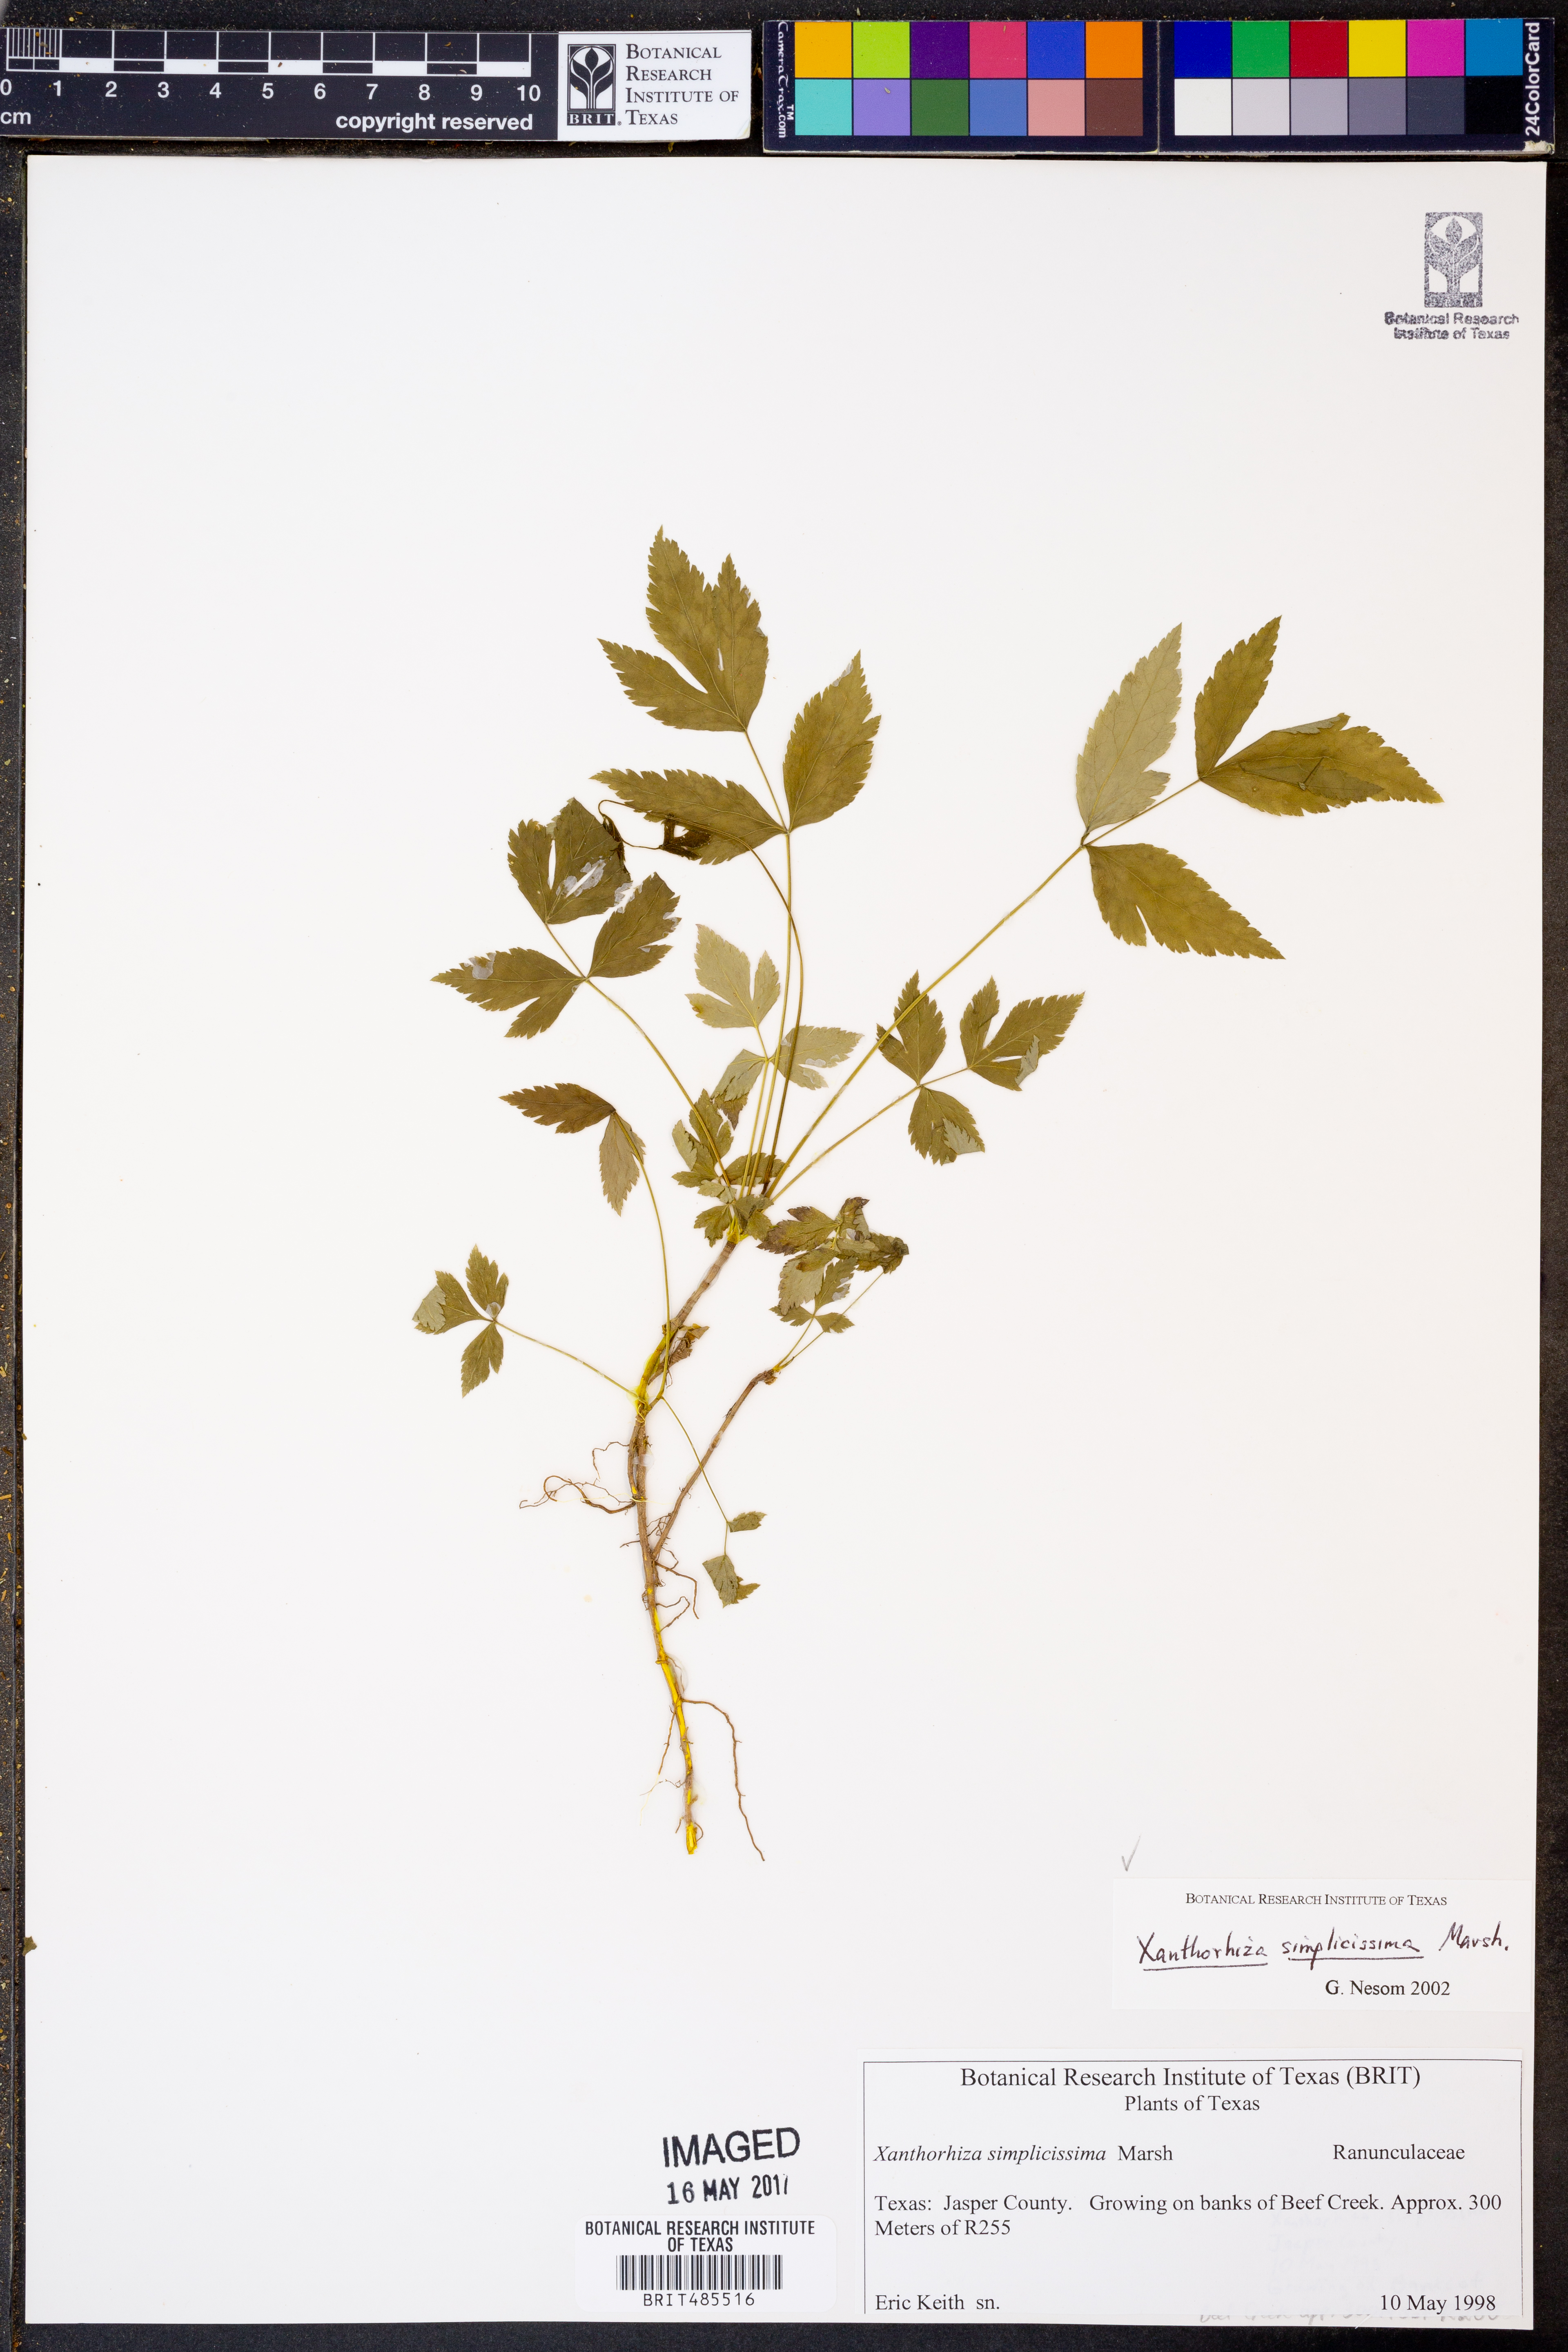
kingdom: Plantae
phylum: Tracheophyta
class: Magnoliopsida
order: Ranunculales
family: Ranunculaceae
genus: Xanthorhiza
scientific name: Xanthorhiza simplicissima
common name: Yellowroot
